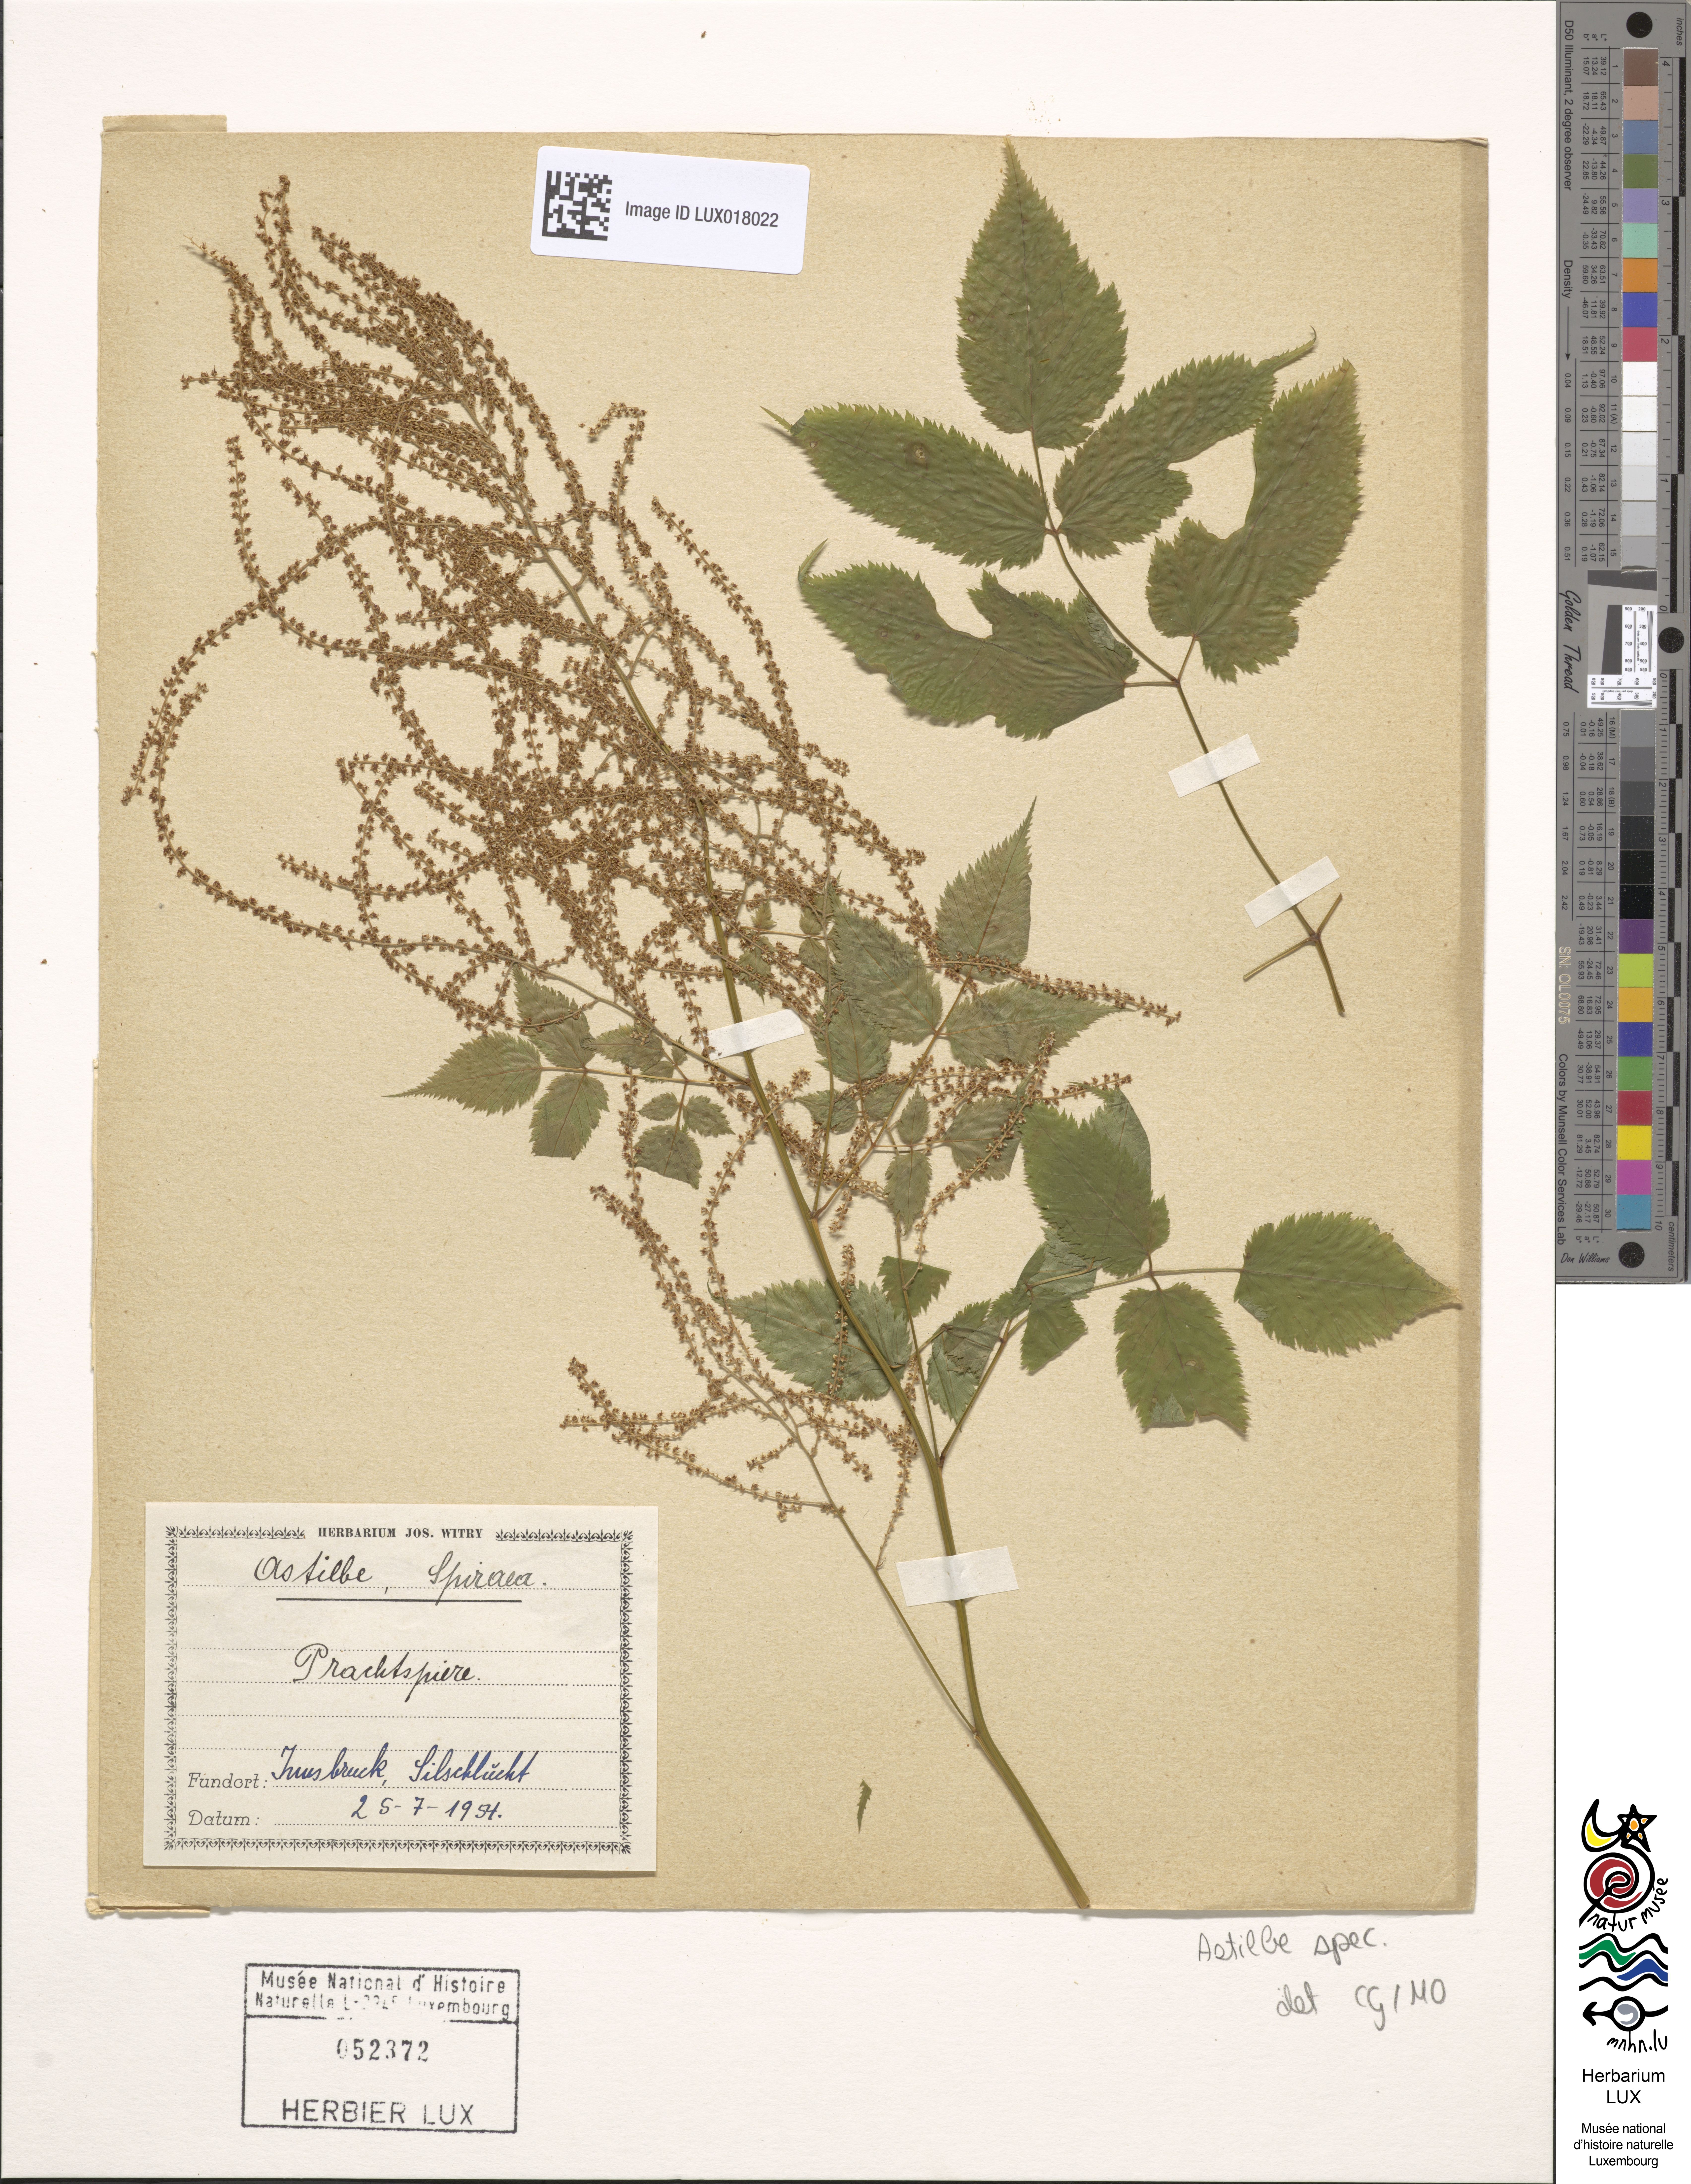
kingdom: Plantae
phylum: Tracheophyta
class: Magnoliopsida
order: Saxifragales
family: Saxifragaceae
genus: Astilbe
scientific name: Astilbe
